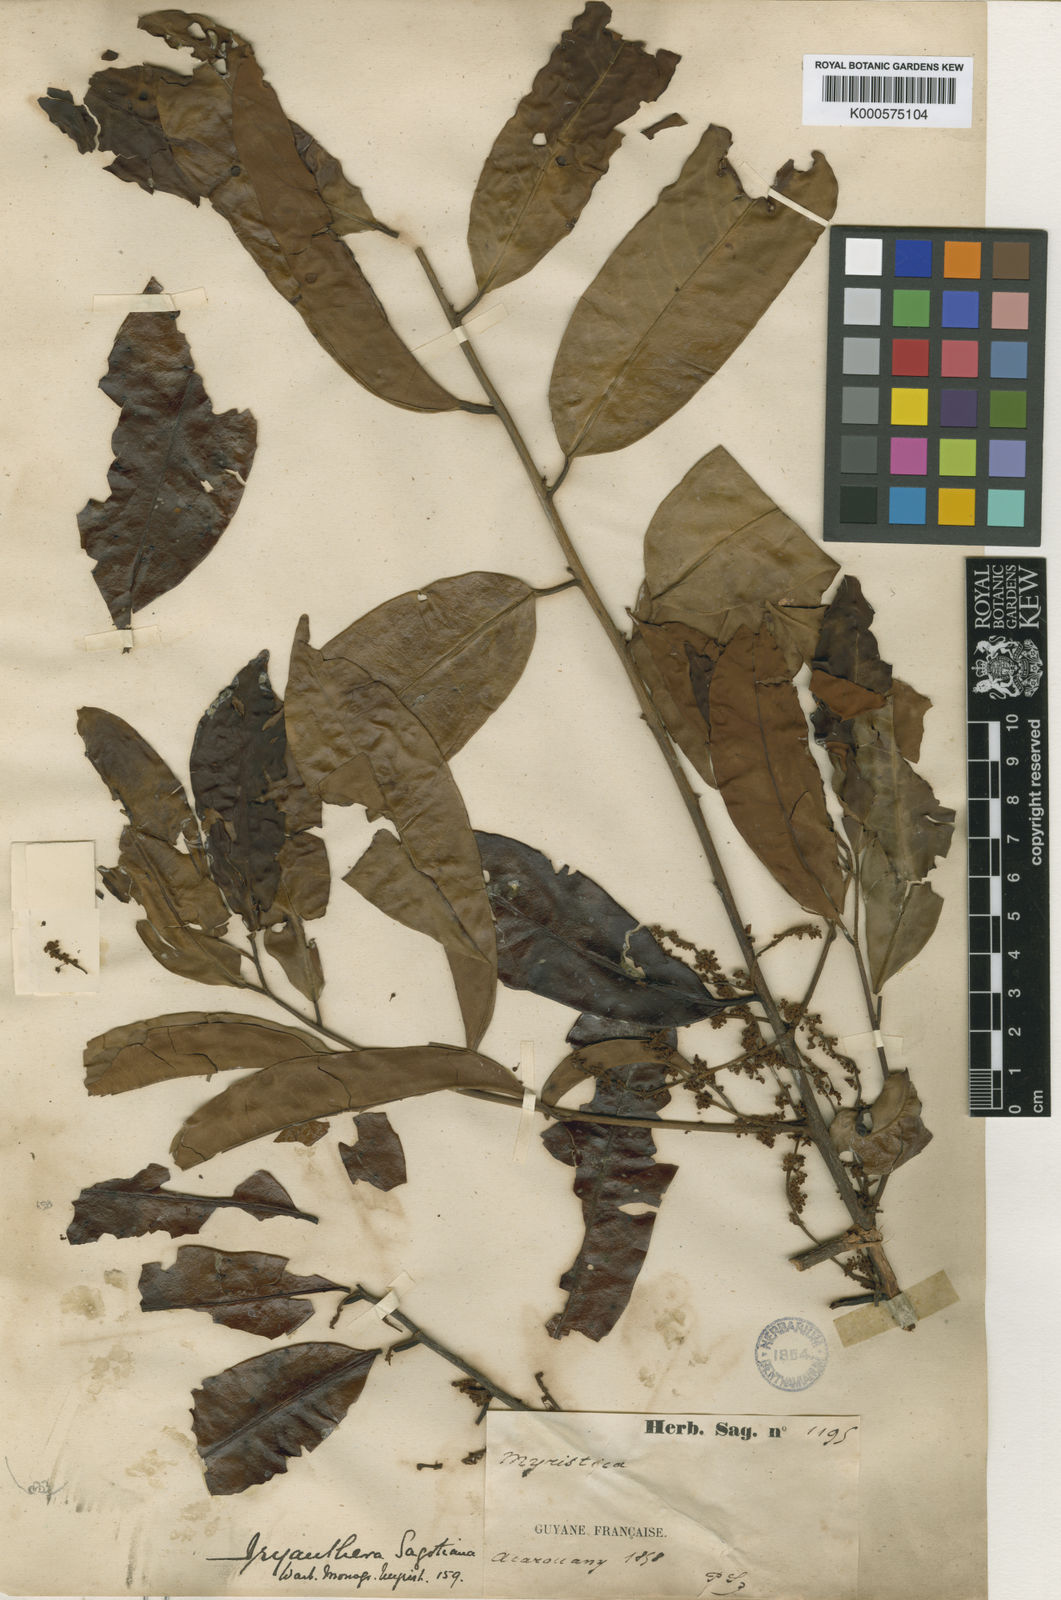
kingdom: Plantae
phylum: Tracheophyta
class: Magnoliopsida
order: Magnoliales
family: Myristicaceae
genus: Iryanthera
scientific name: Iryanthera sagotiana
